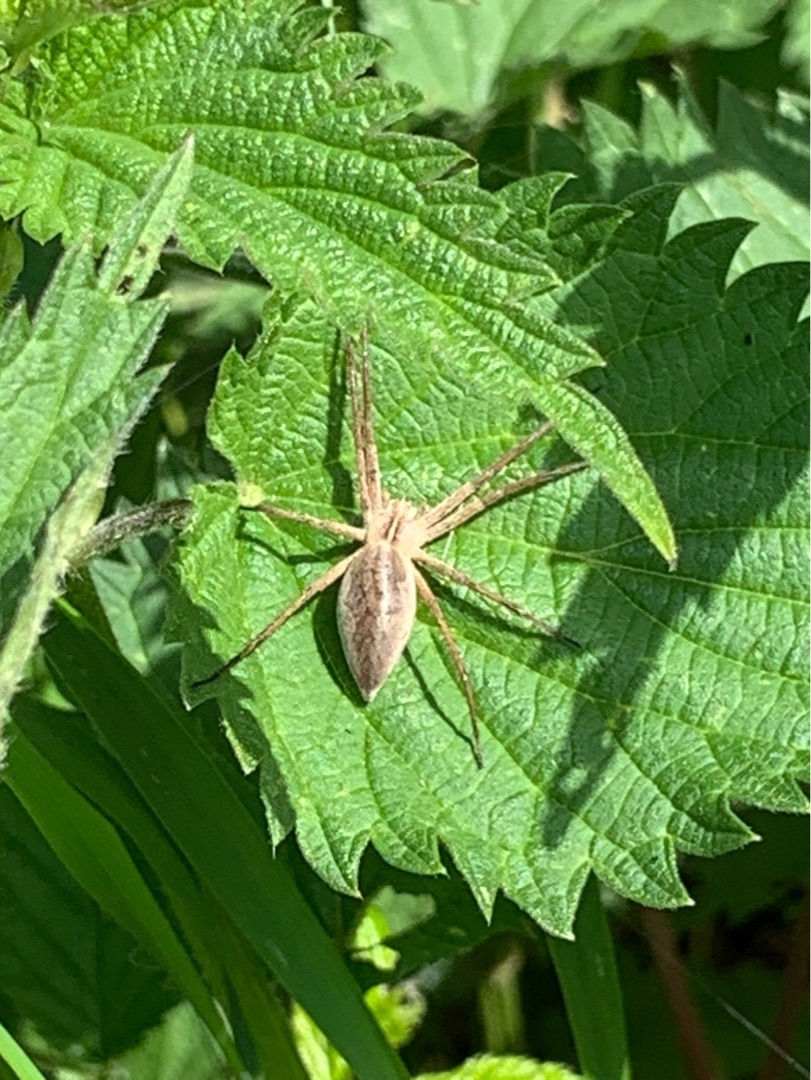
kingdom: Animalia
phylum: Arthropoda
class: Arachnida
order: Araneae
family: Pisauridae
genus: Pisaura
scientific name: Pisaura mirabilis
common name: Almindelig rovedderkop
